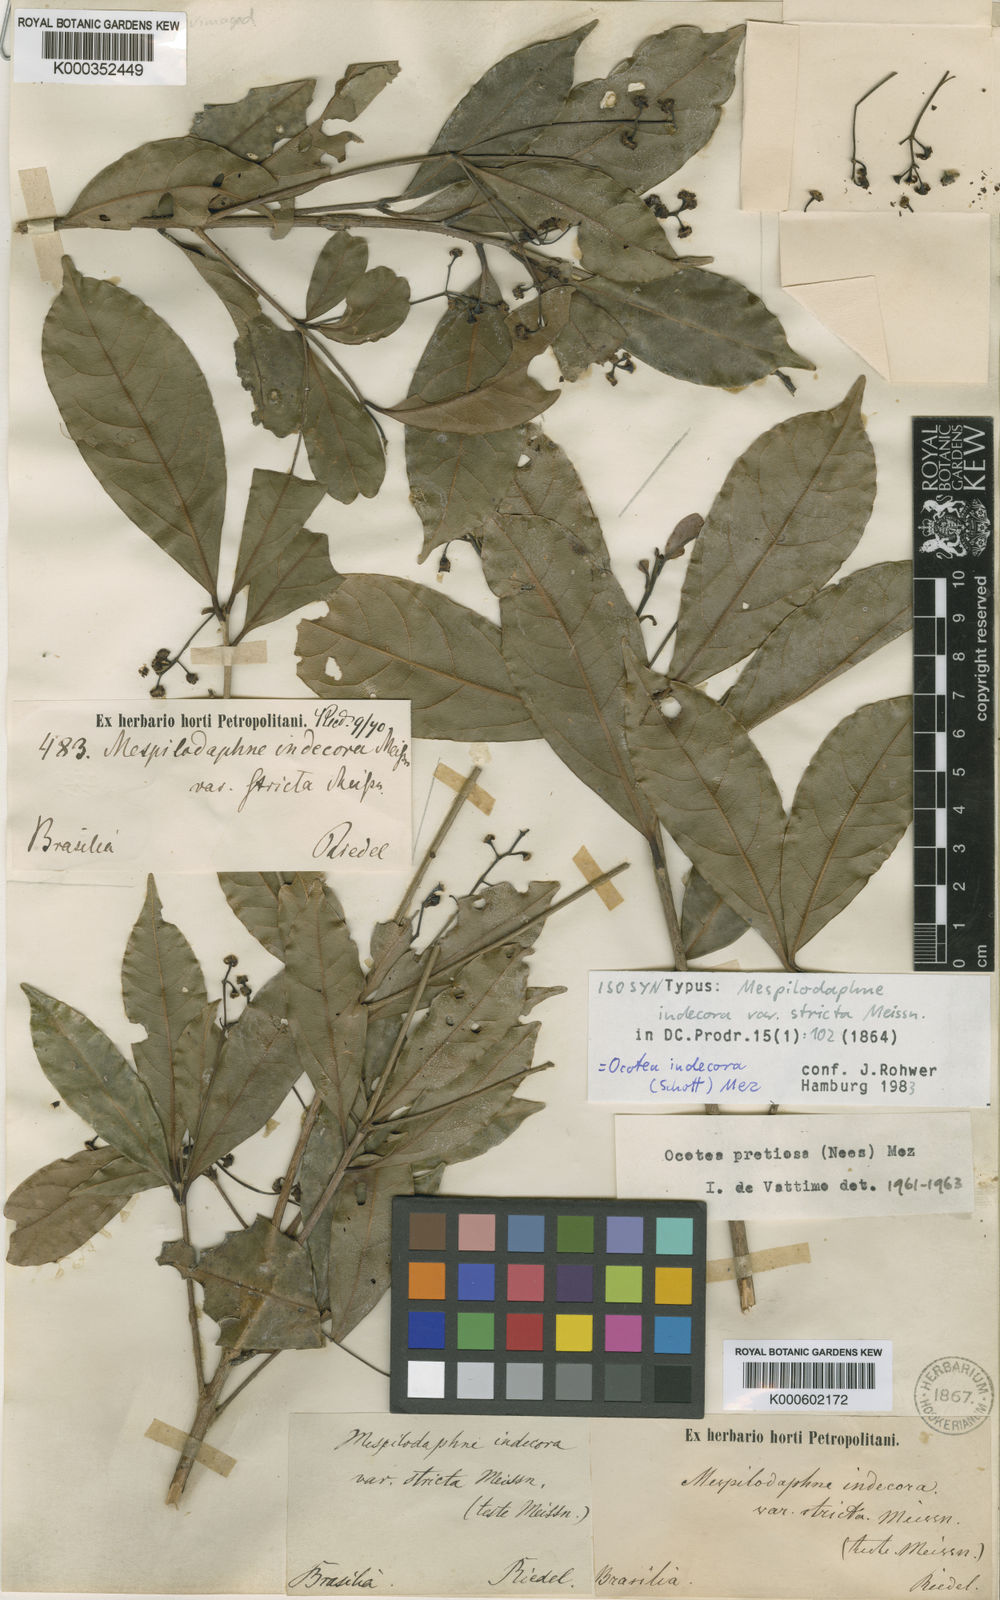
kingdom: Plantae
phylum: Tracheophyta
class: Magnoliopsida
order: Laurales
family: Lauraceae
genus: Mespilodaphne
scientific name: Mespilodaphne indecora
